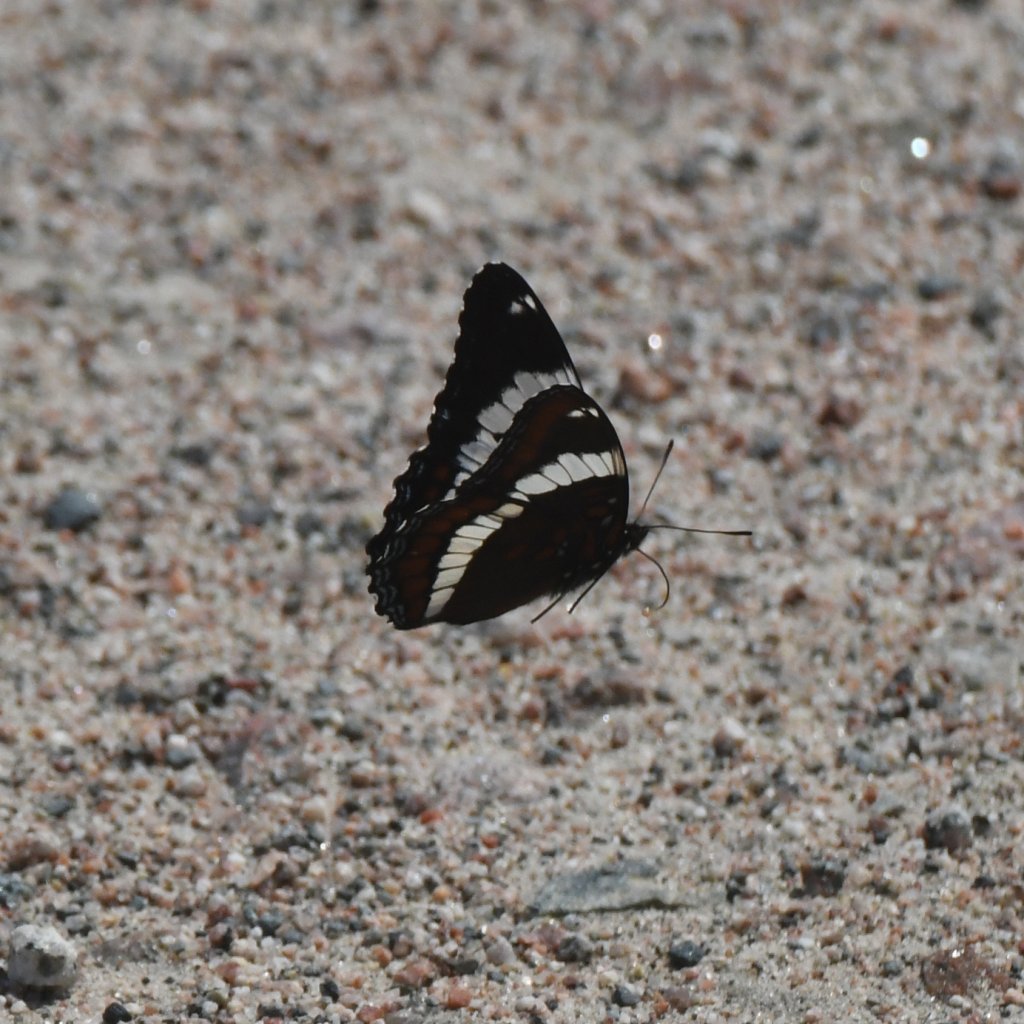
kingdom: Animalia
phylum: Arthropoda
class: Insecta
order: Lepidoptera
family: Nymphalidae
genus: Limenitis
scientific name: Limenitis arthemis
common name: Red-spotted Admiral
